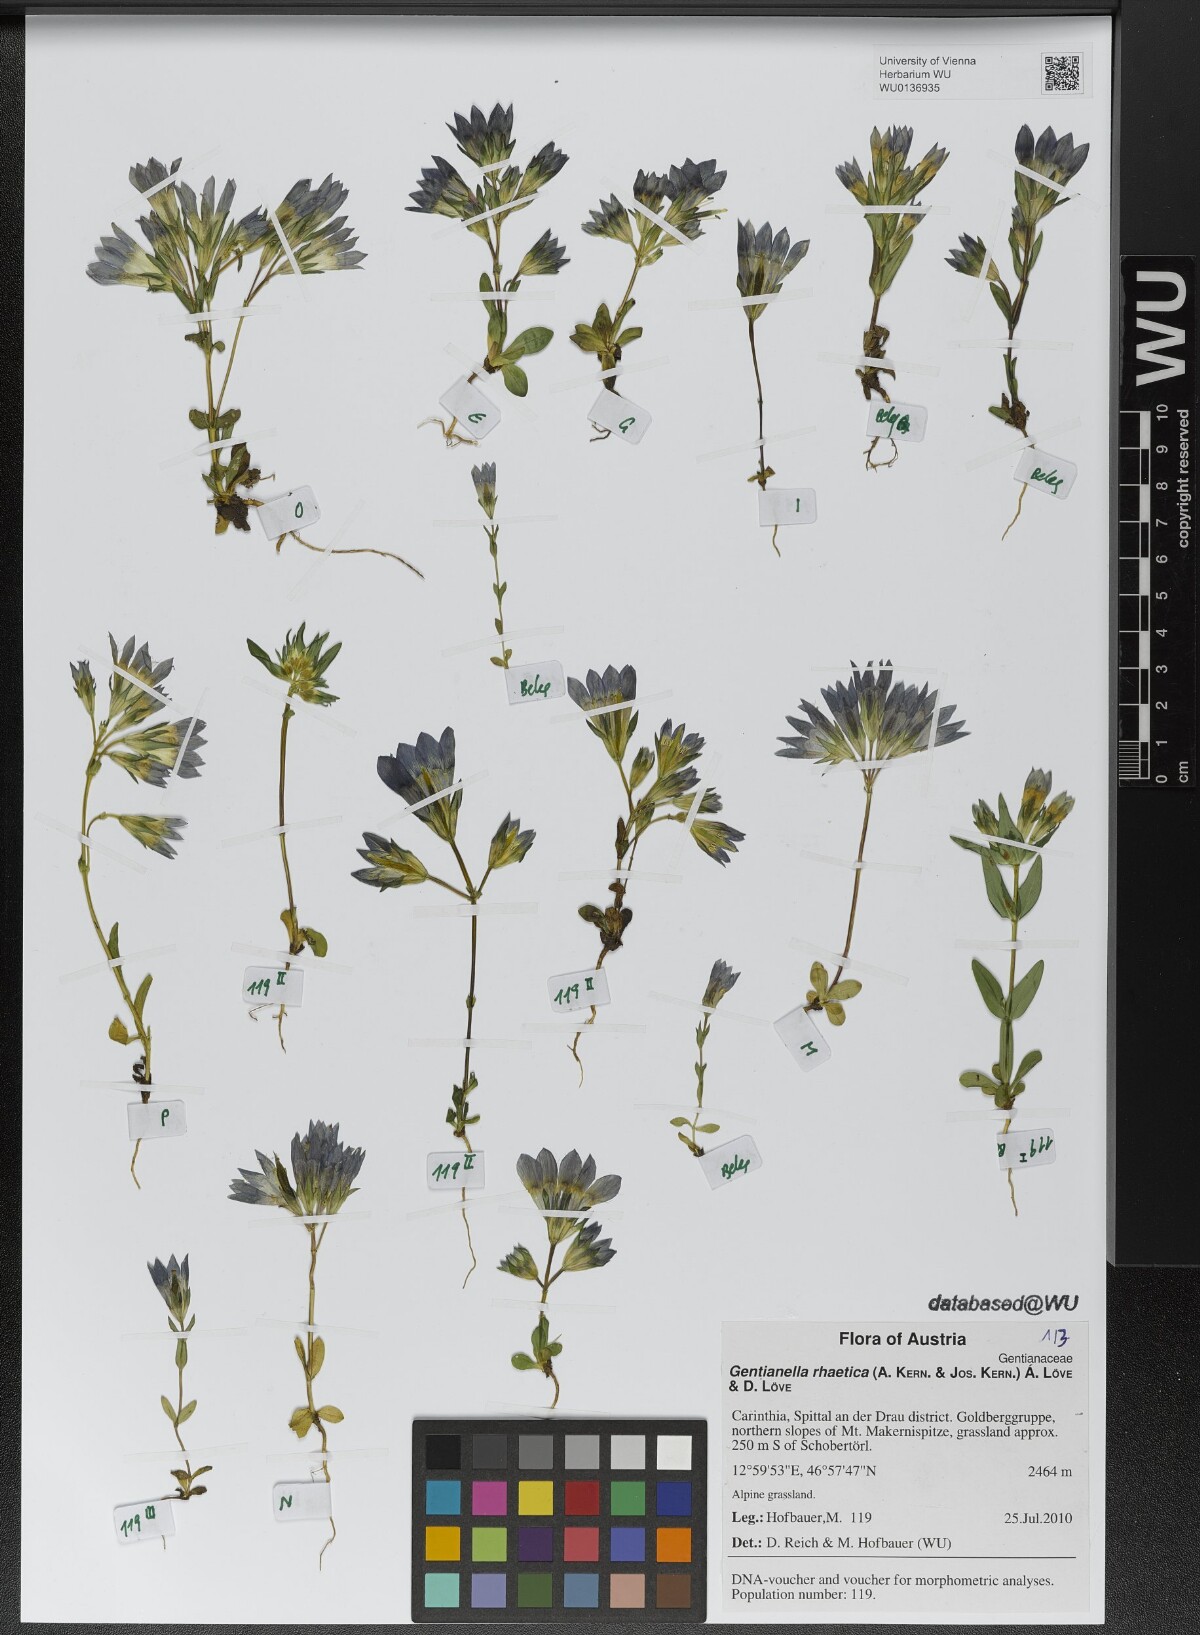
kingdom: Plantae
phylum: Tracheophyta
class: Magnoliopsida
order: Gentianales
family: Gentianaceae
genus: Gentianella
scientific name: Gentianella rhaetica
